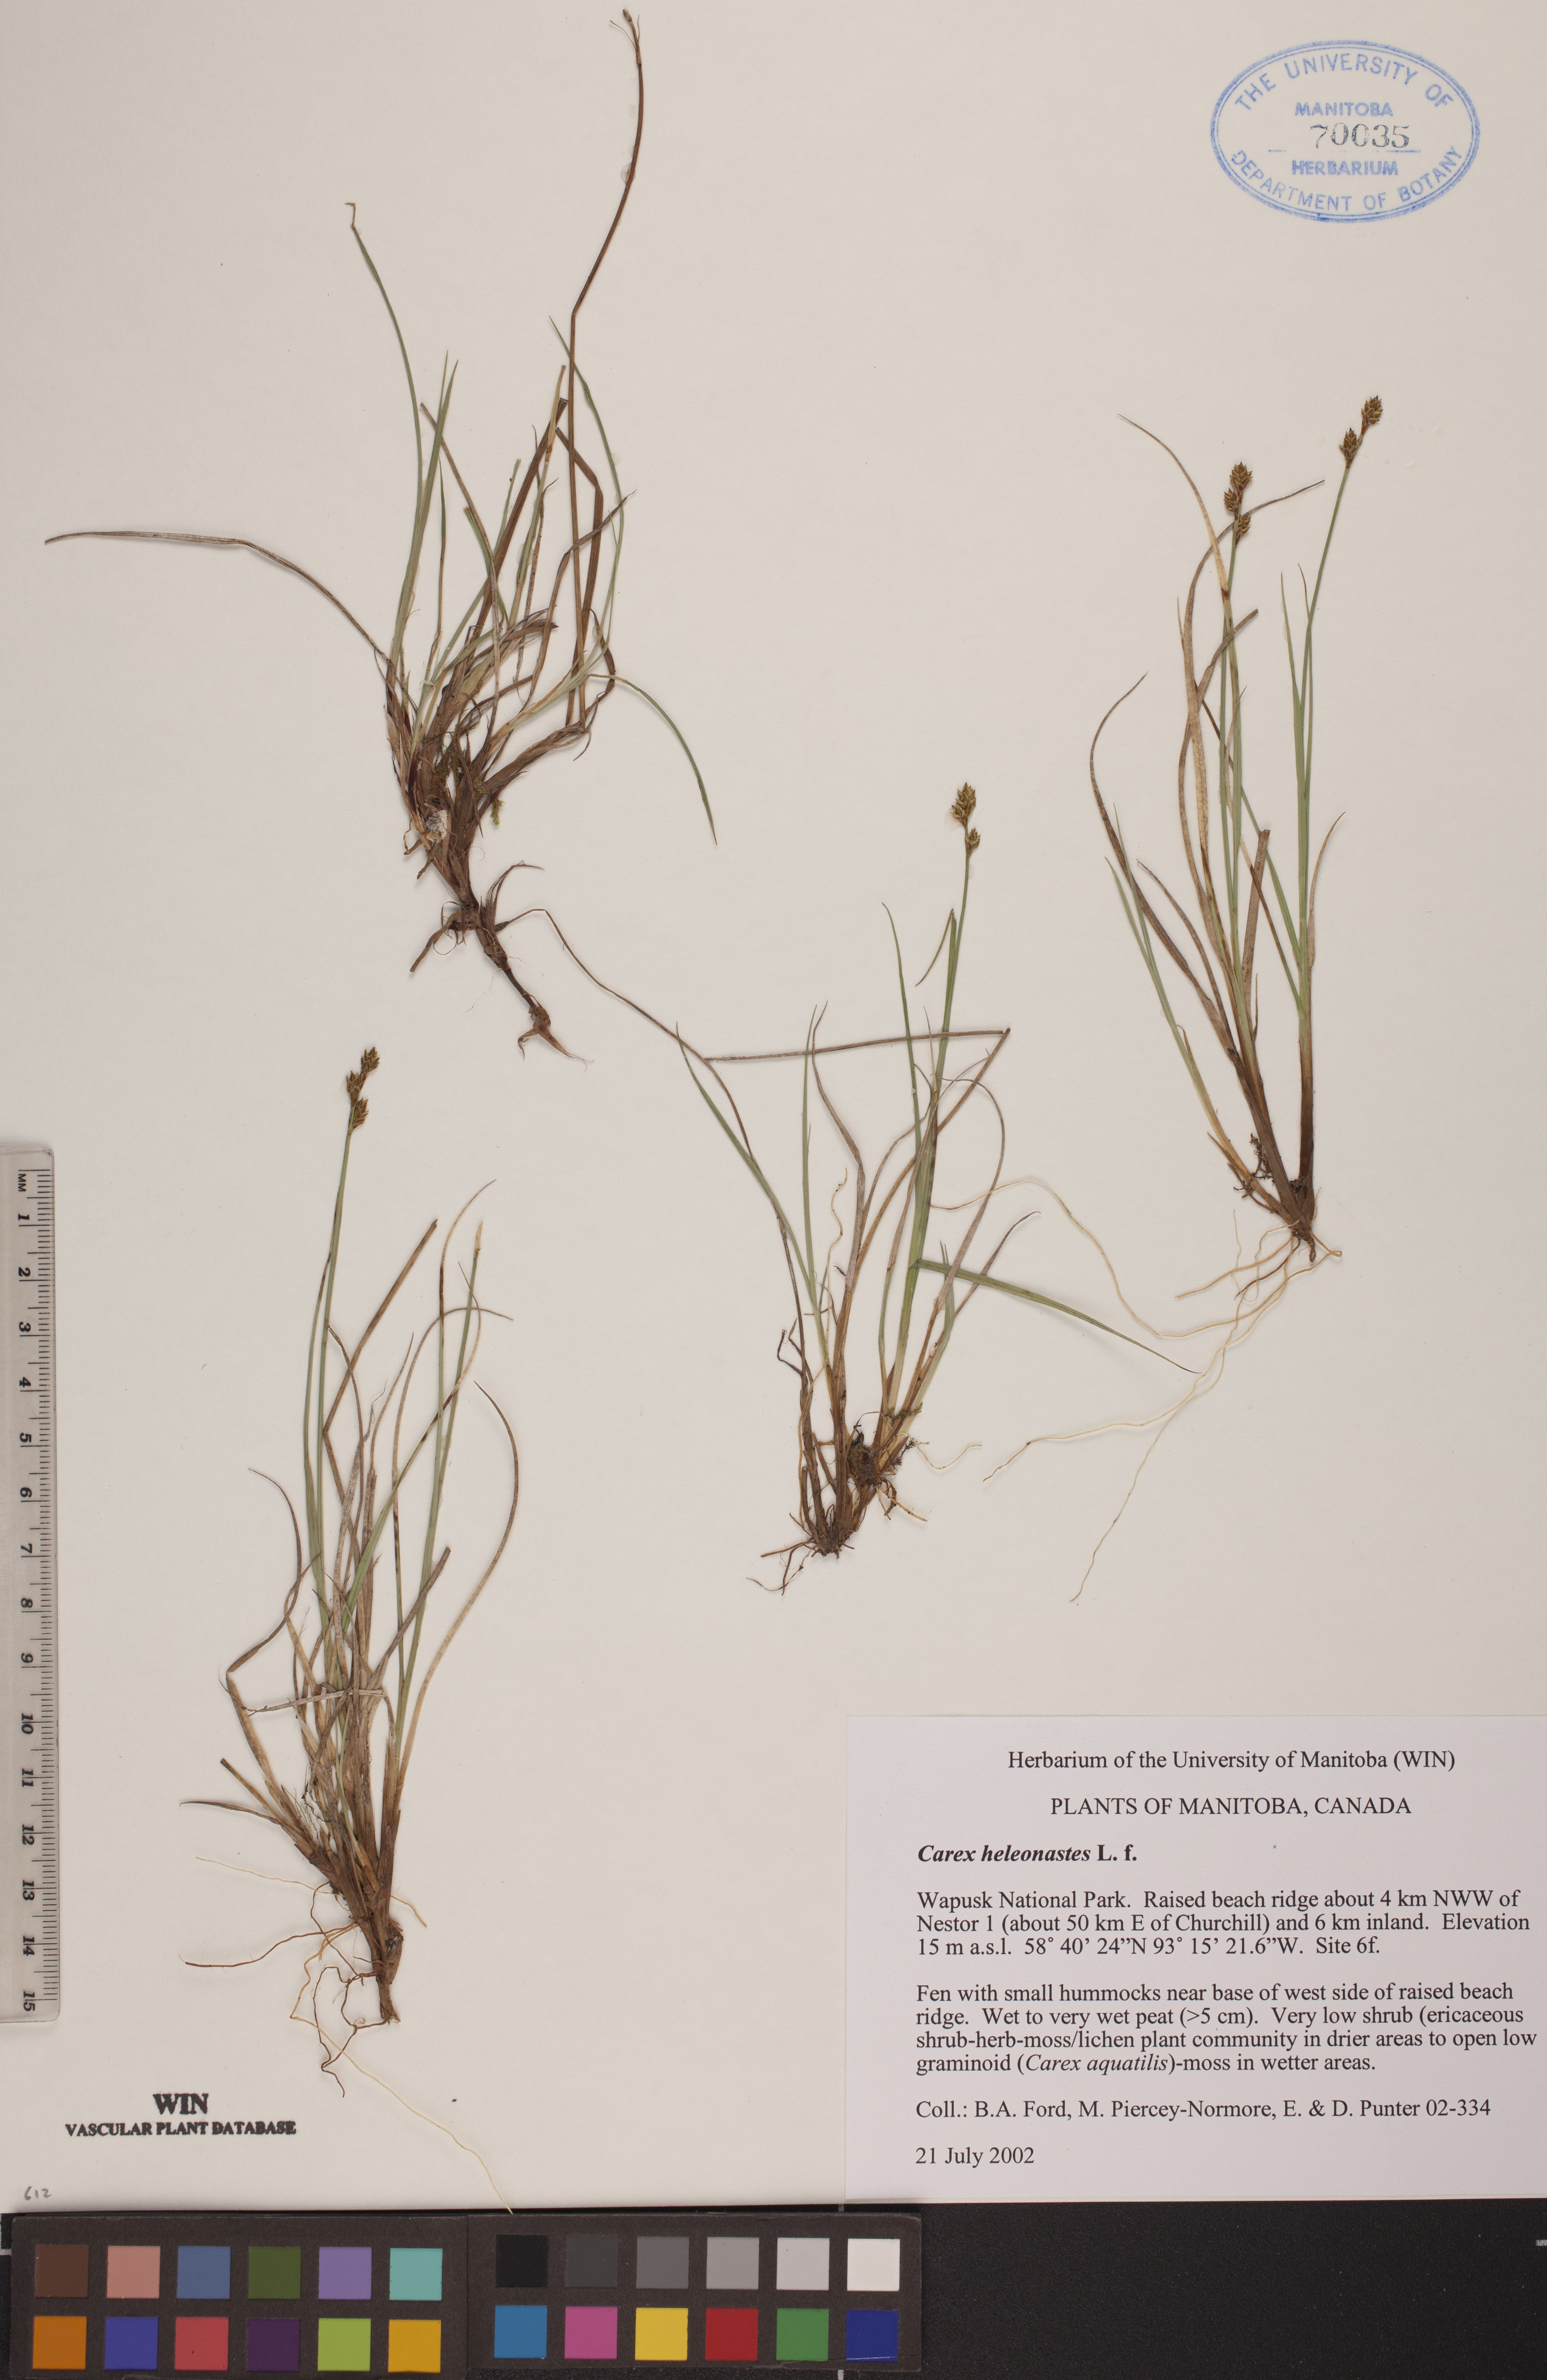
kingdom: Plantae
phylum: Tracheophyta
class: Liliopsida
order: Poales
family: Cyperaceae
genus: Carex
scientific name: Carex heleonastes
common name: Hudson bay sedge
